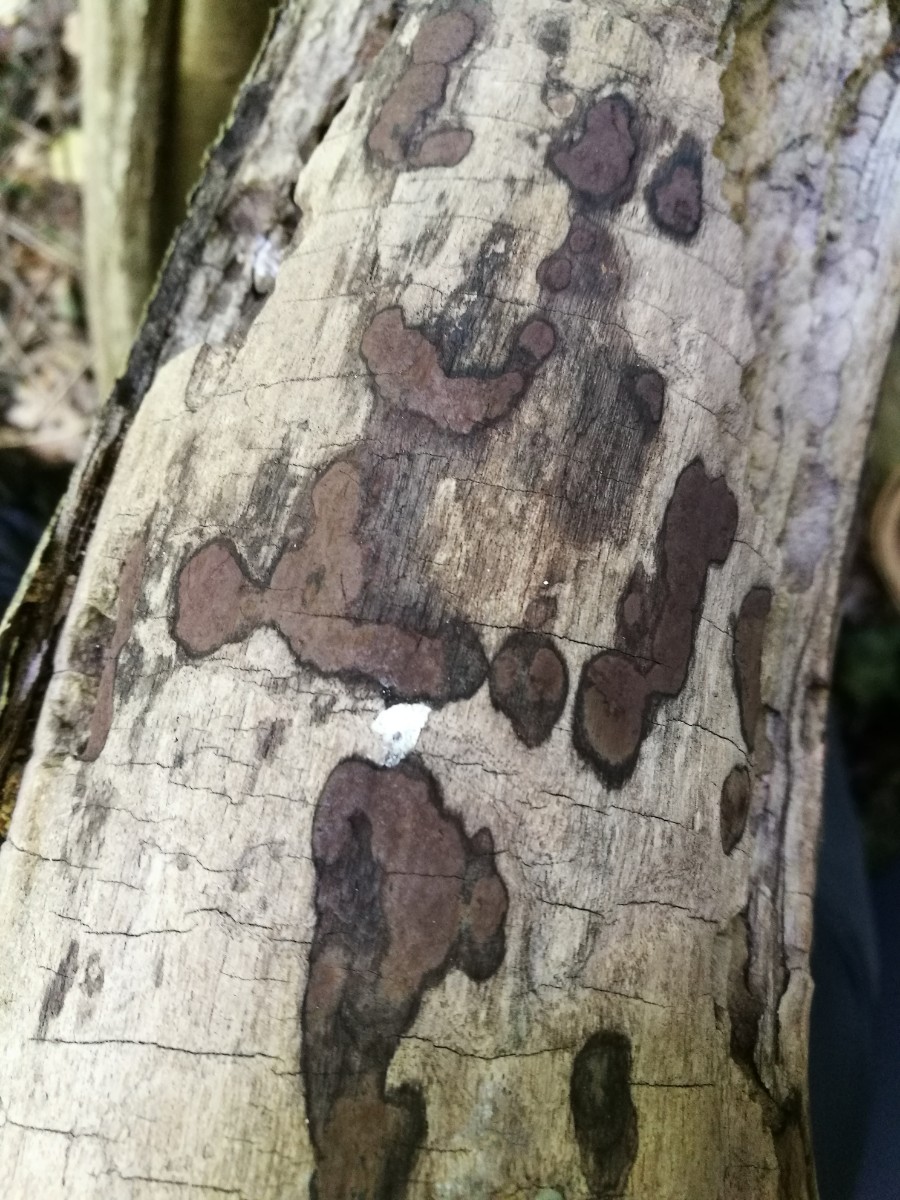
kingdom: Fungi
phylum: Ascomycota
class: Sordariomycetes
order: Xylariales
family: Hypoxylaceae
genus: Hypoxylon
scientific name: Hypoxylon petriniae
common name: nedsænket kulbær
